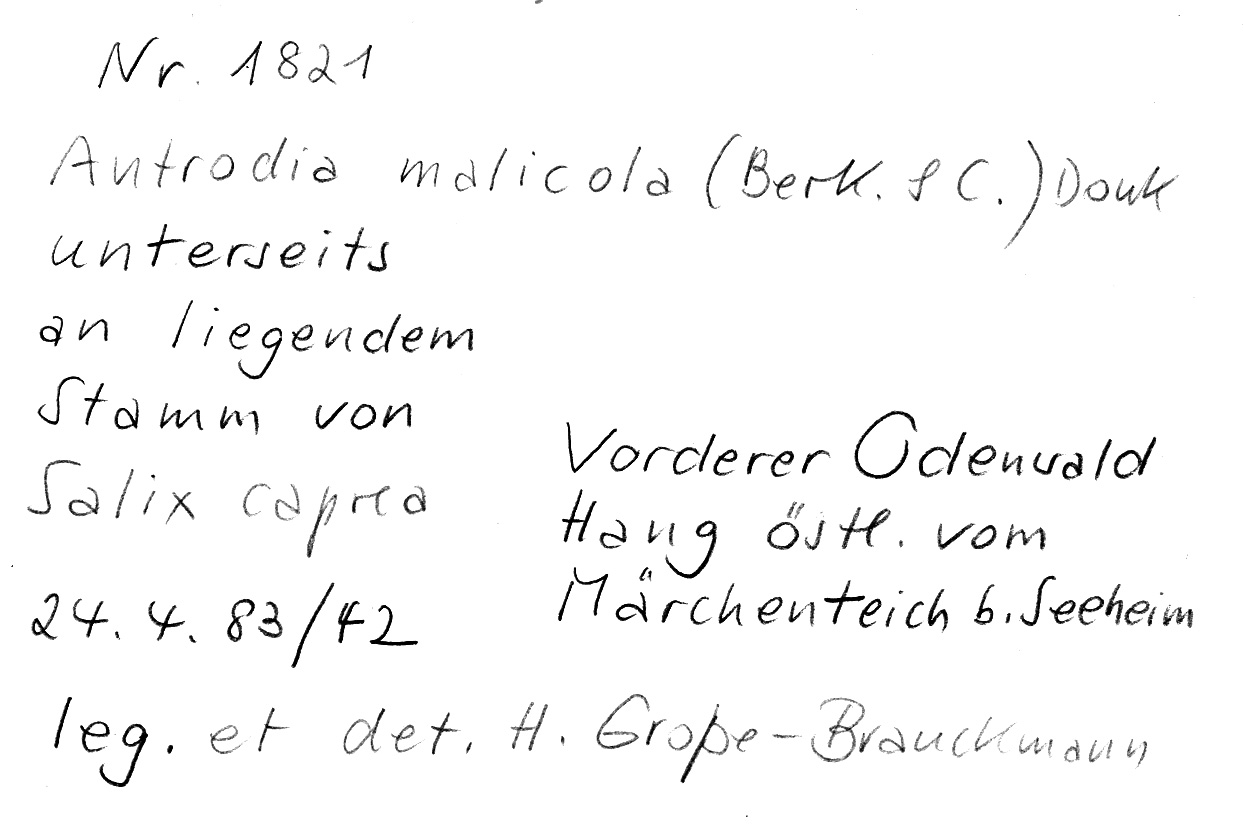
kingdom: Fungi
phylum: Basidiomycota
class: Agaricomycetes
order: Polyporales
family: Fomitopsidaceae
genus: Brunneoporus
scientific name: Brunneoporus malicola
